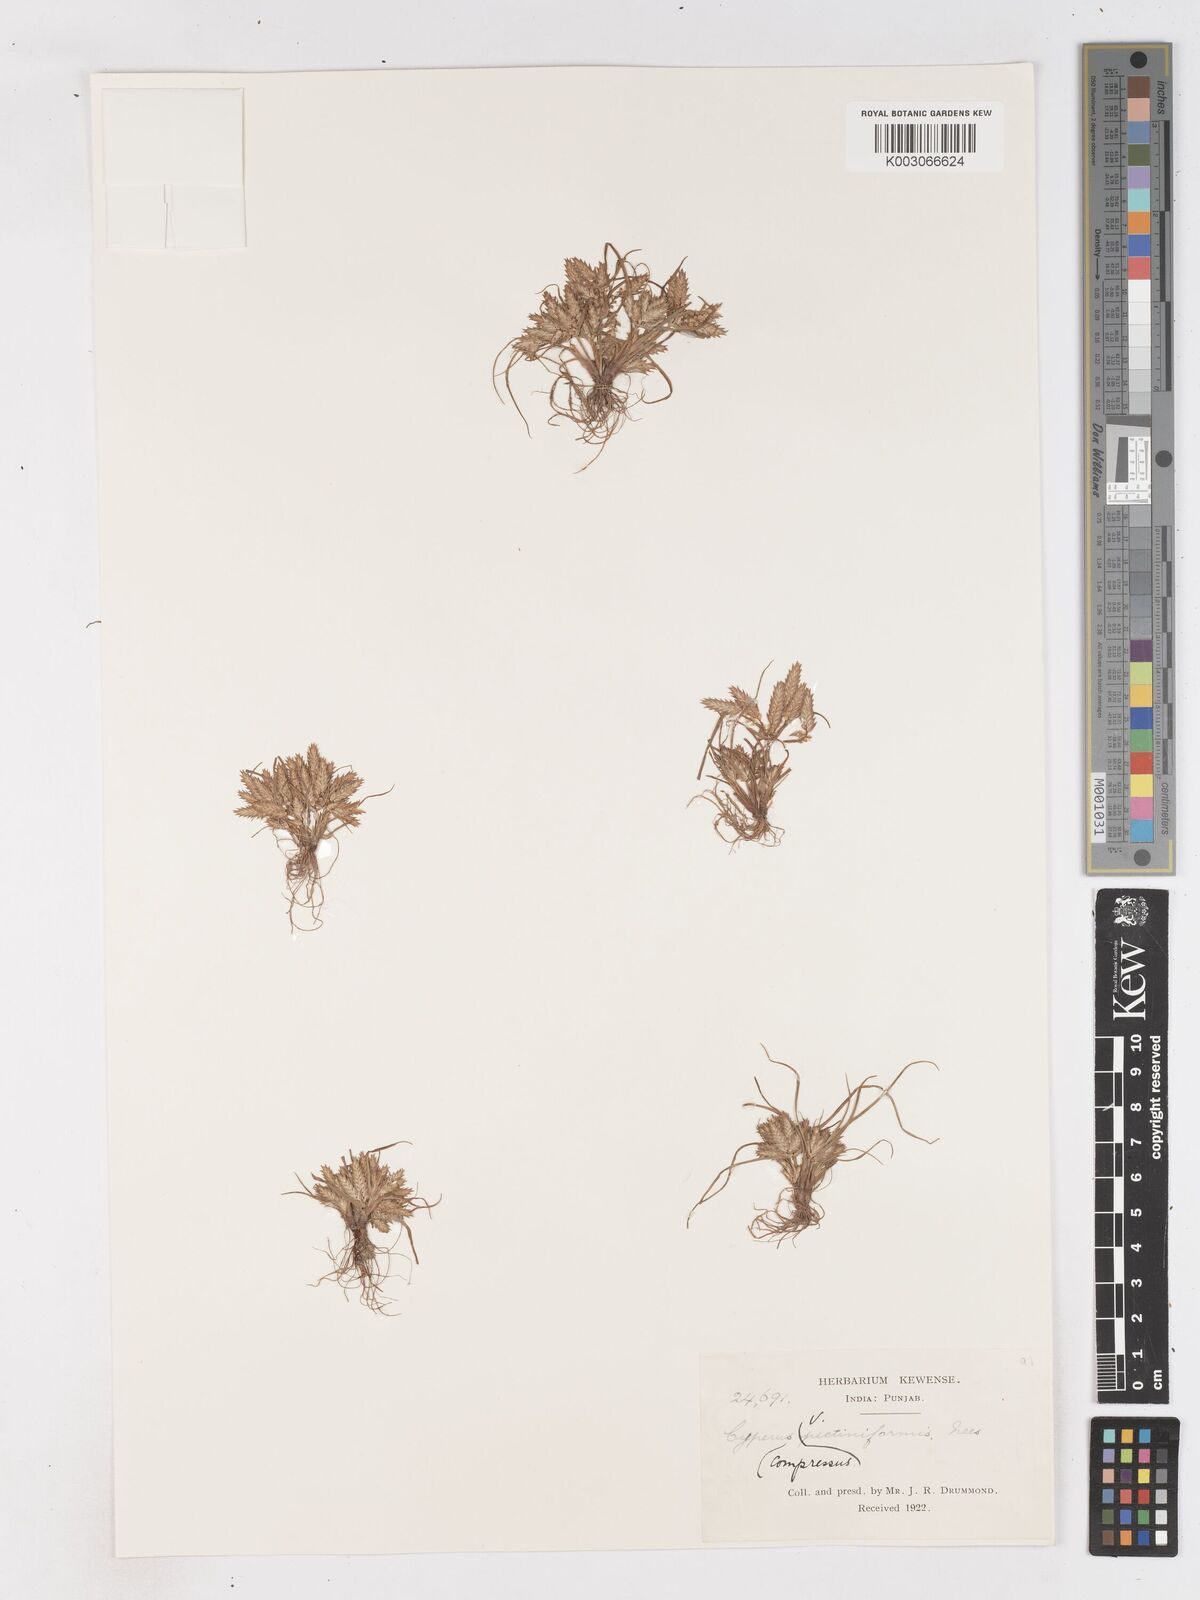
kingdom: Plantae
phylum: Tracheophyta
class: Liliopsida
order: Poales
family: Cyperaceae
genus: Cyperus
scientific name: Cyperus compressus
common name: Poorland flatsedge
